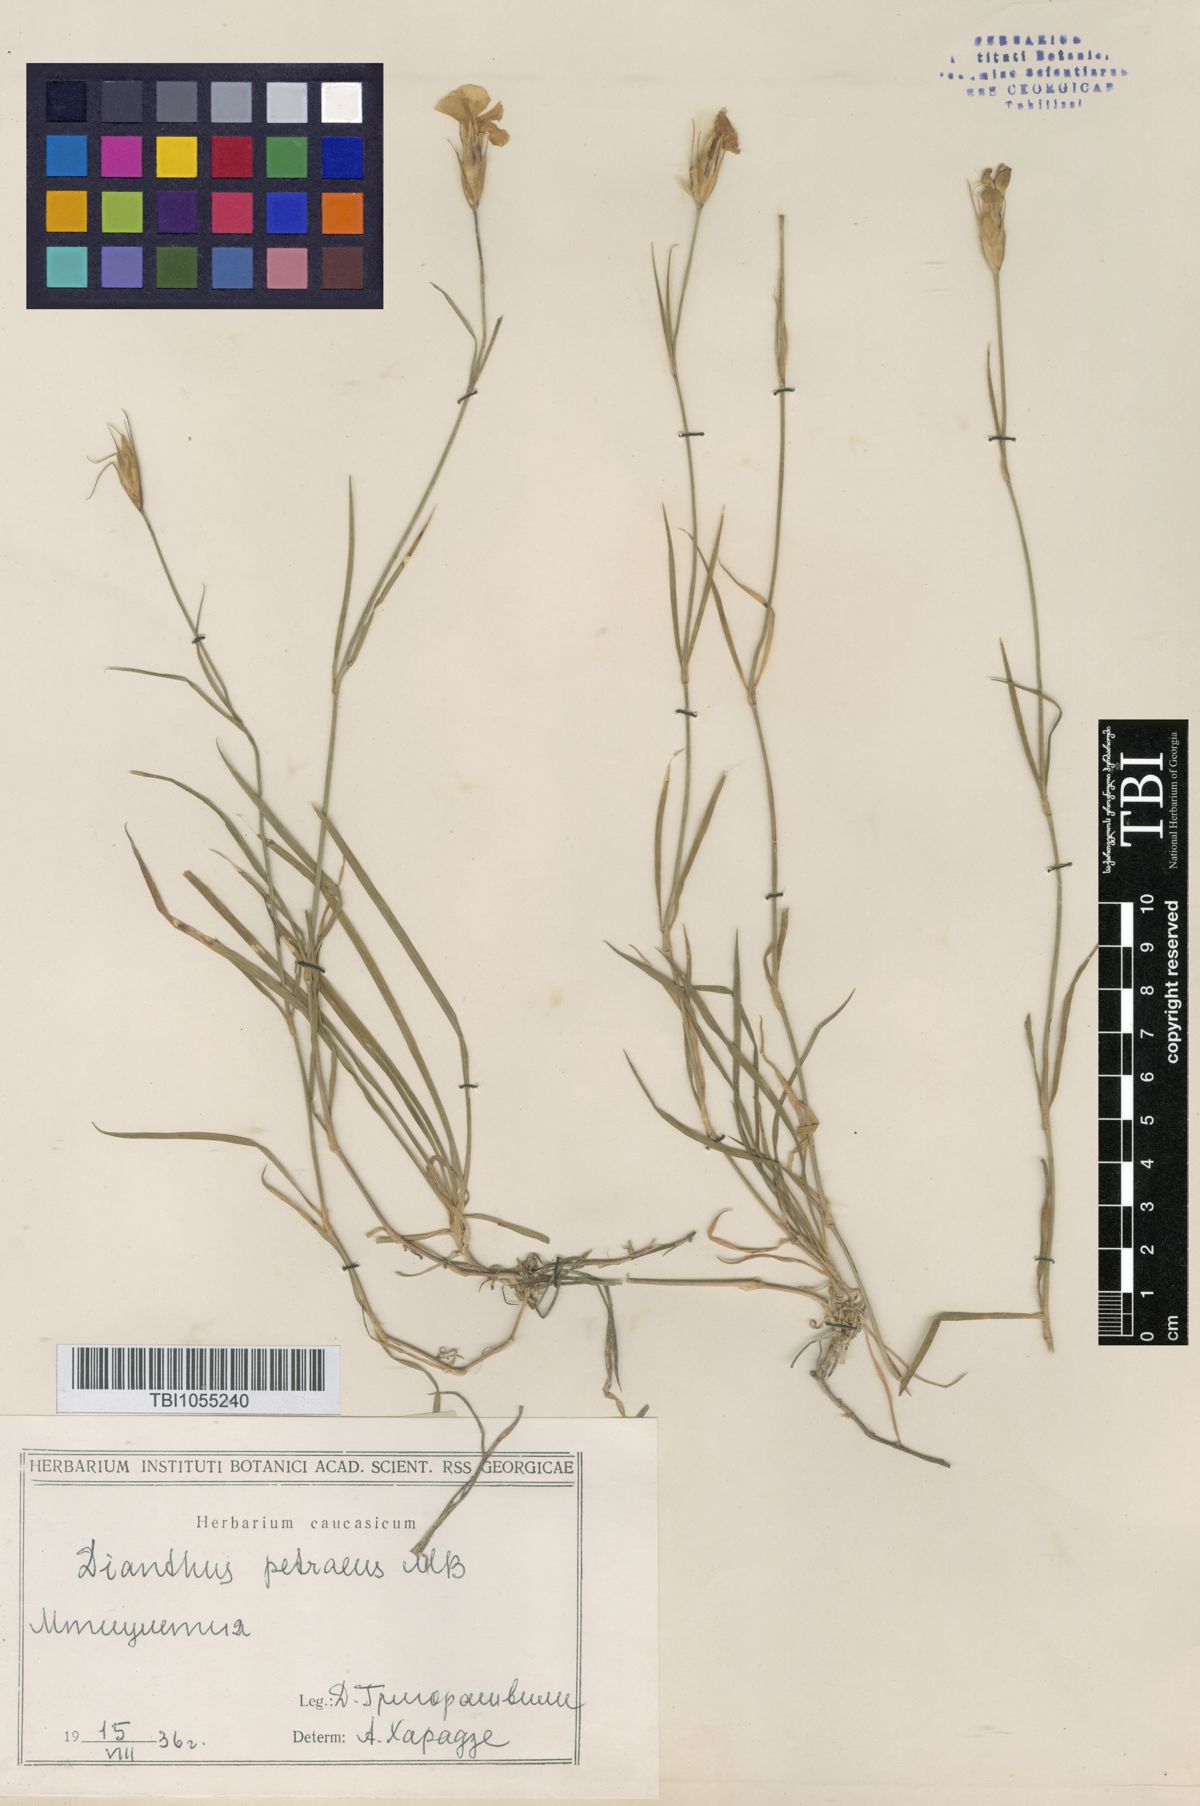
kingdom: Plantae
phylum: Tracheophyta
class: Magnoliopsida
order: Caryophyllales
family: Caryophyllaceae
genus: Dianthus
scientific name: Dianthus cretaceus
